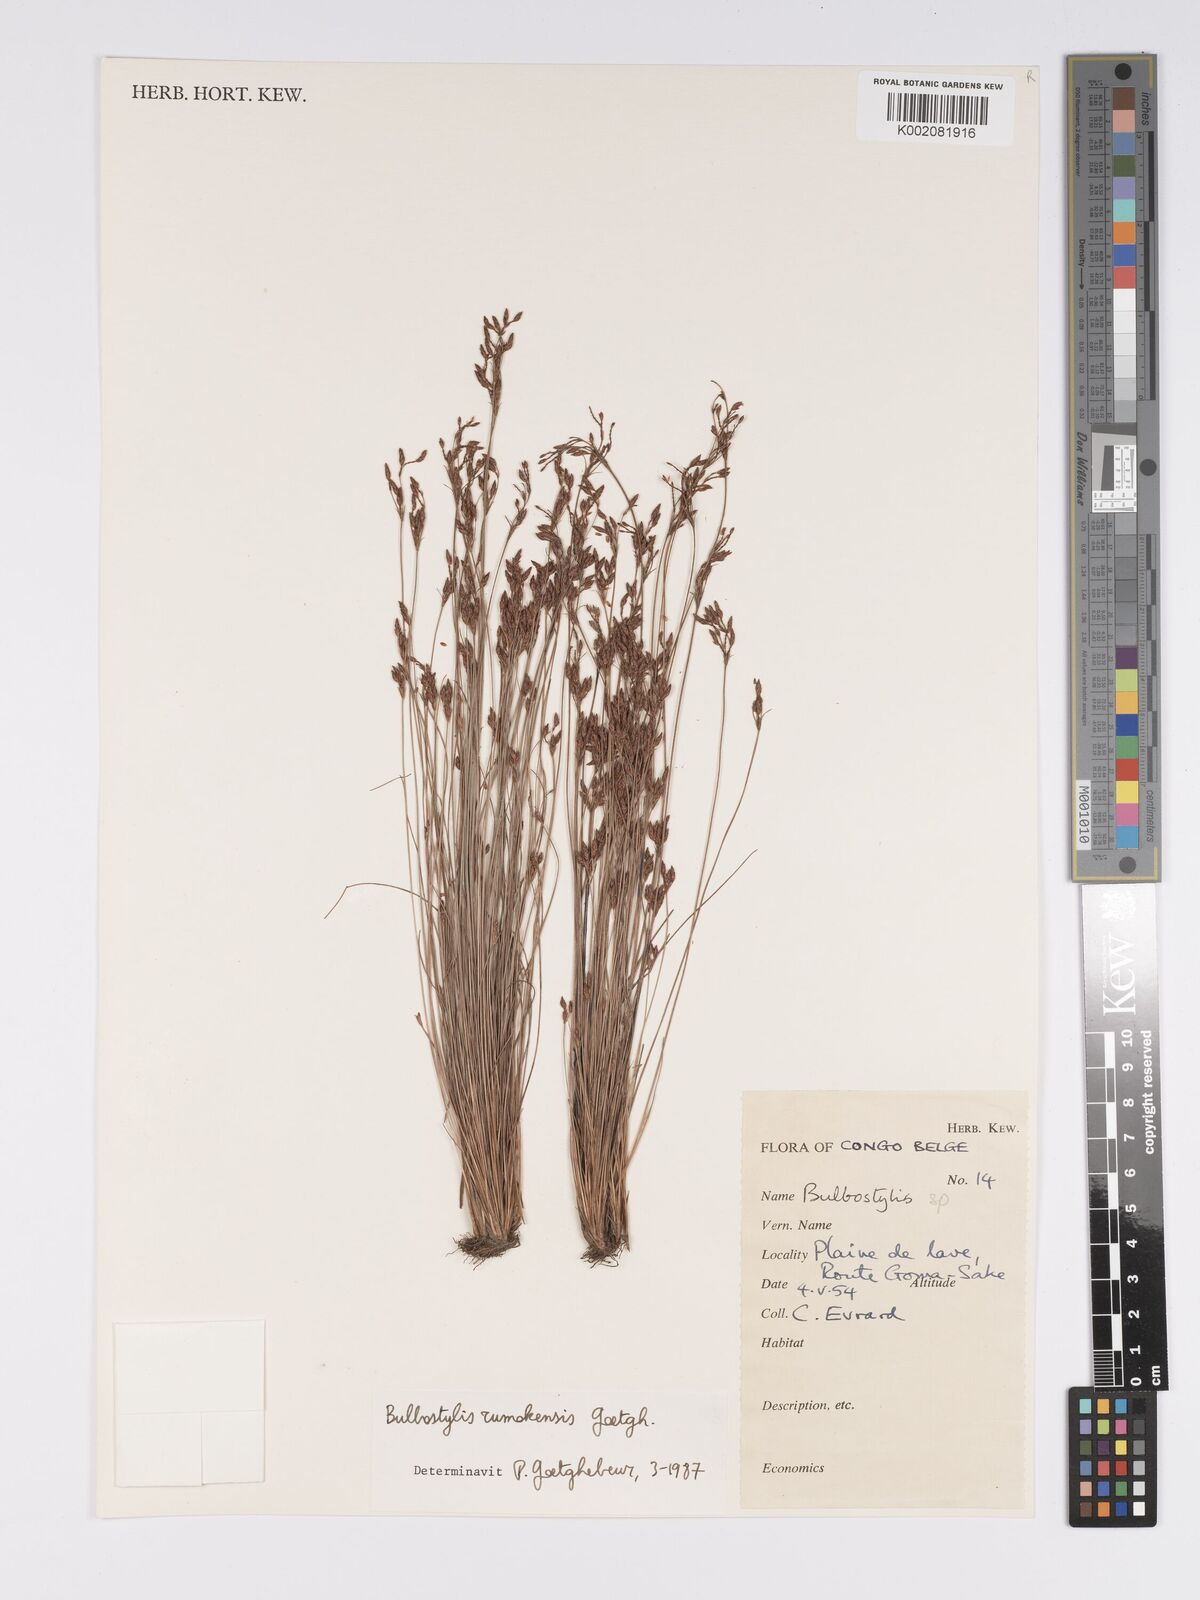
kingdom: Plantae
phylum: Tracheophyta
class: Liliopsida
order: Poales
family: Cyperaceae
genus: Bulbostylis
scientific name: Bulbostylis rumokensis
